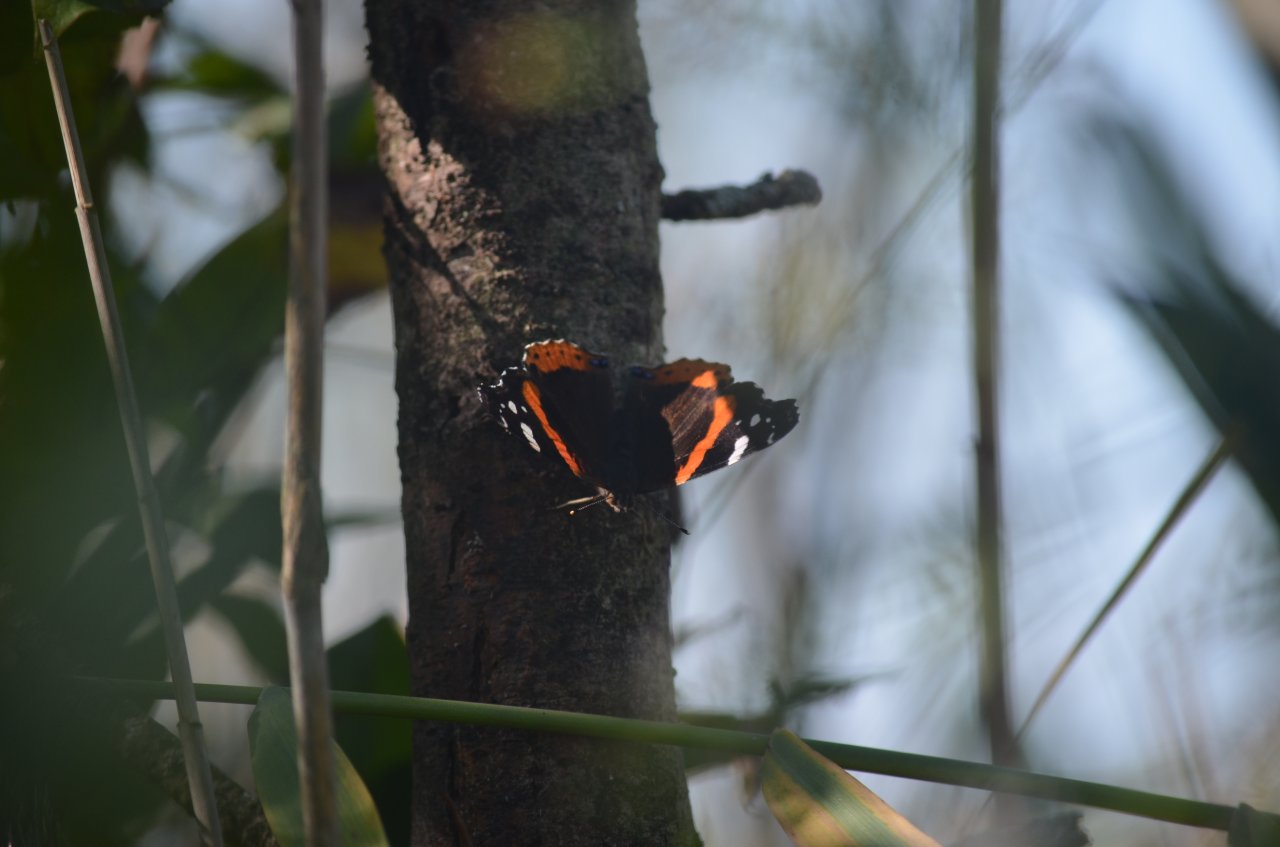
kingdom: Animalia
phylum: Arthropoda
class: Insecta
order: Lepidoptera
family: Nymphalidae
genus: Vanessa
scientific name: Vanessa atalanta
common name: Red Admiral
